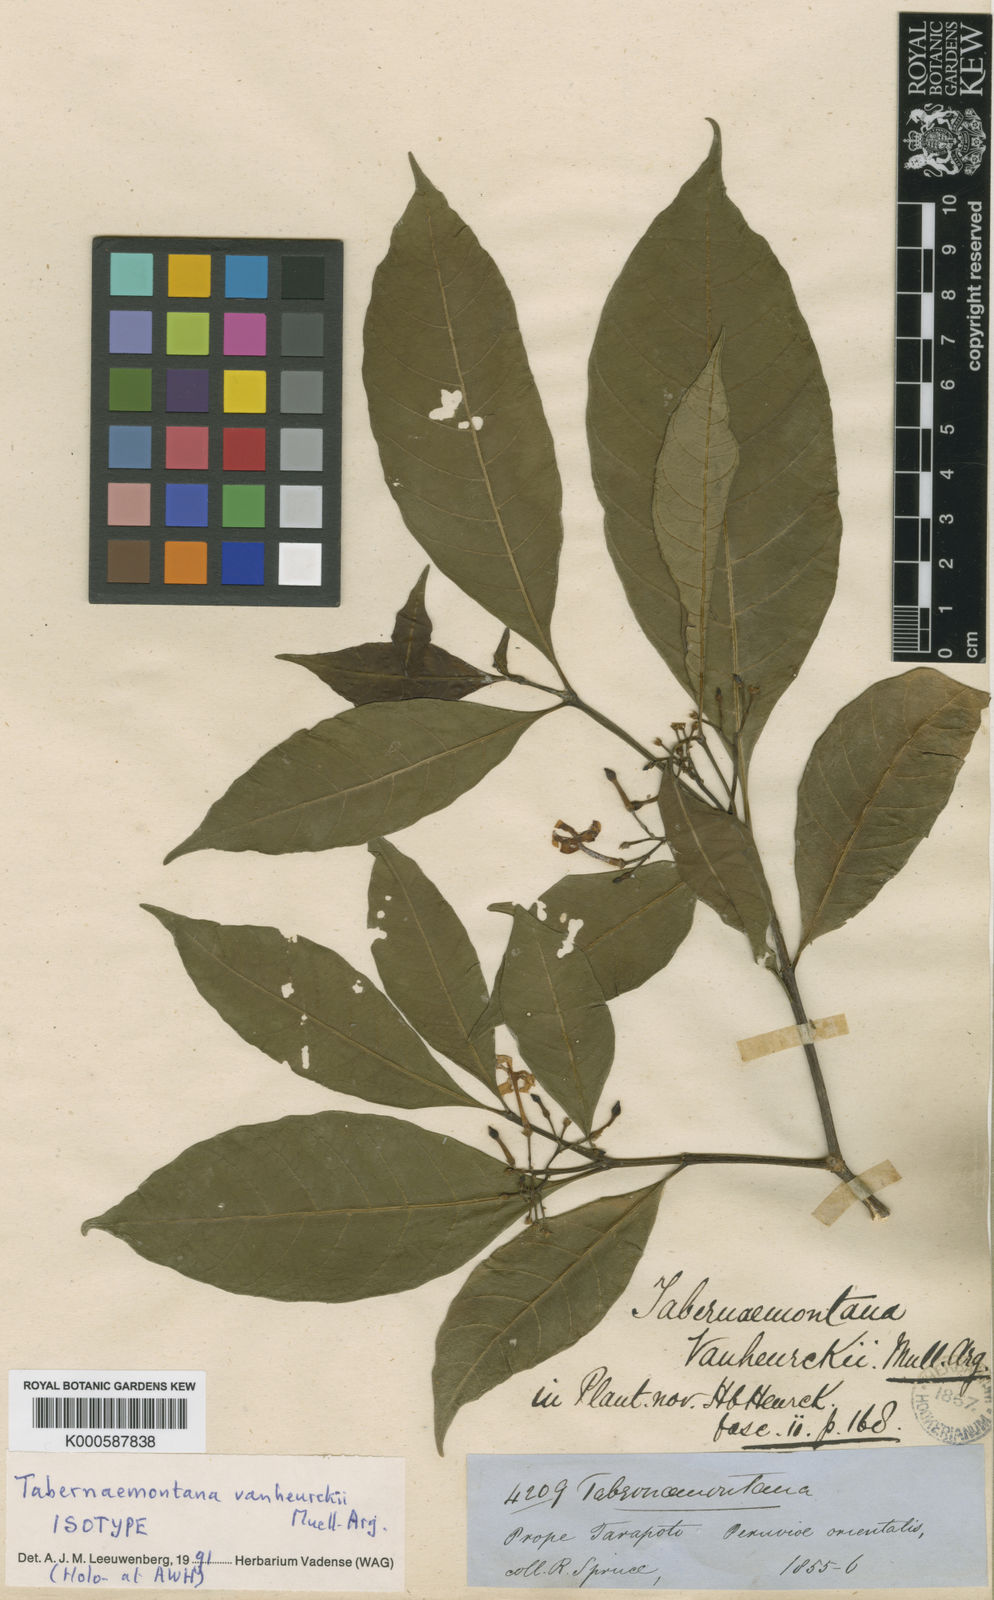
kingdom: Plantae
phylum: Tracheophyta
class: Magnoliopsida
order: Gentianales
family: Apocynaceae
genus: Tabernaemontana
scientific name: Tabernaemontana
